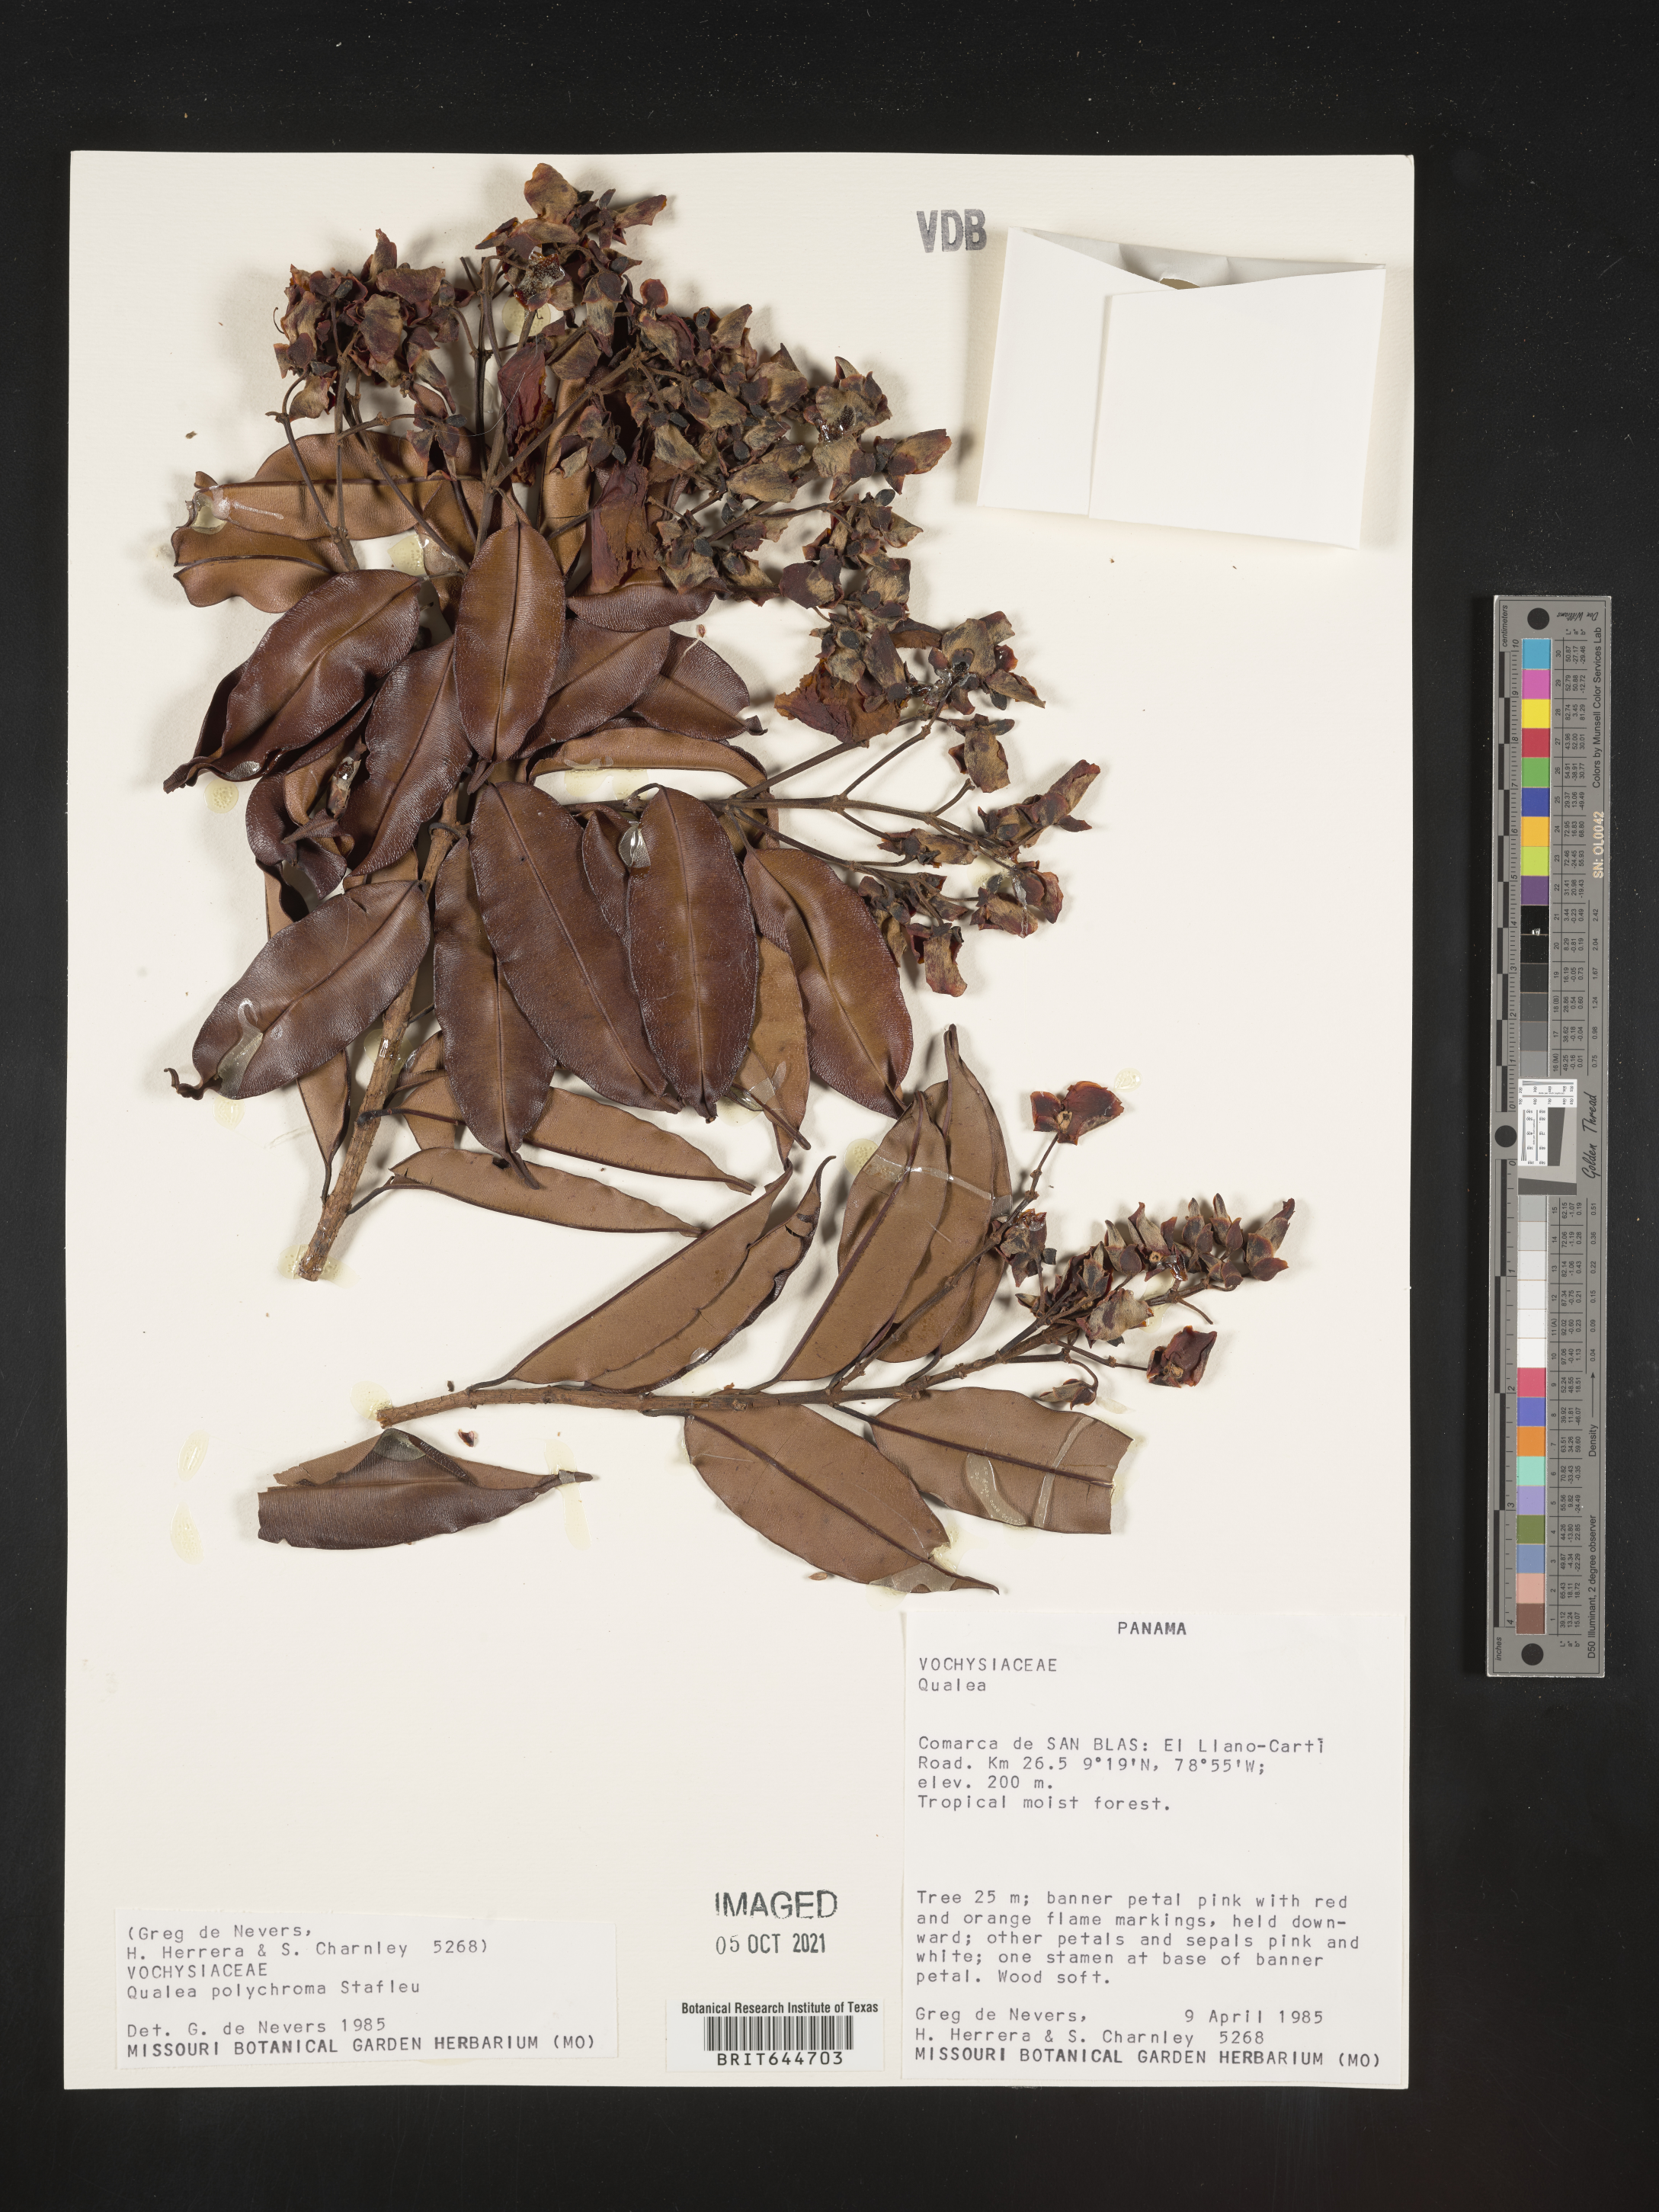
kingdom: Plantae
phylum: Tracheophyta
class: Magnoliopsida
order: Myrtales
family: Vochysiaceae
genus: Qualea
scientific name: Qualea
